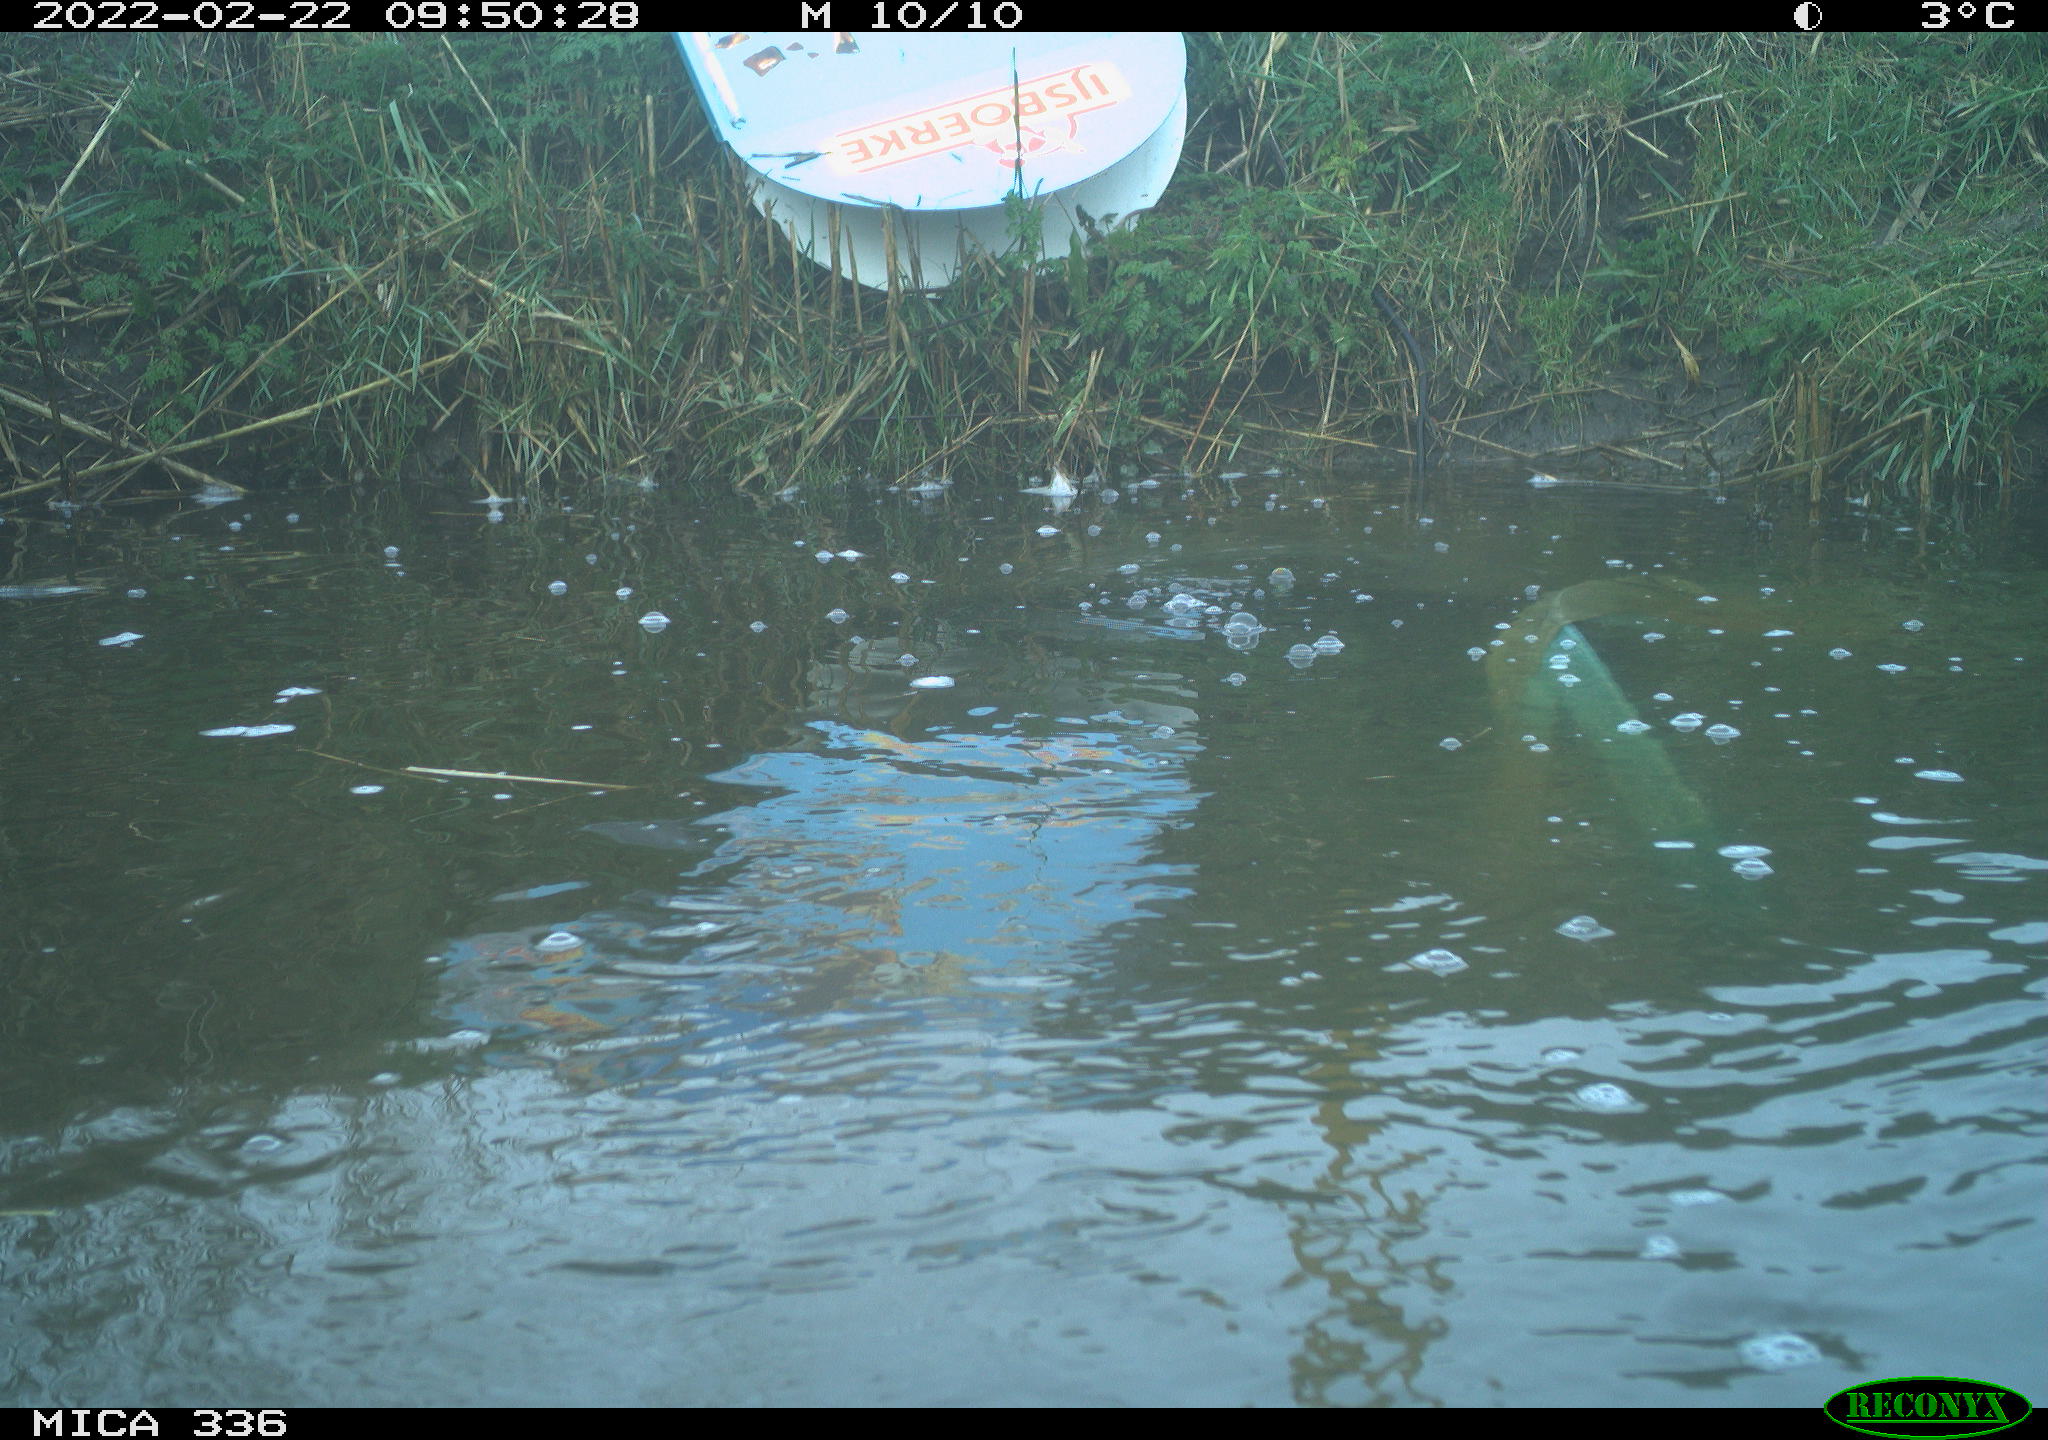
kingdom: Animalia
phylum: Chordata
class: Aves
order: Podicipediformes
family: Podicipedidae
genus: Podiceps
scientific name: Podiceps cristatus
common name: Great crested grebe
